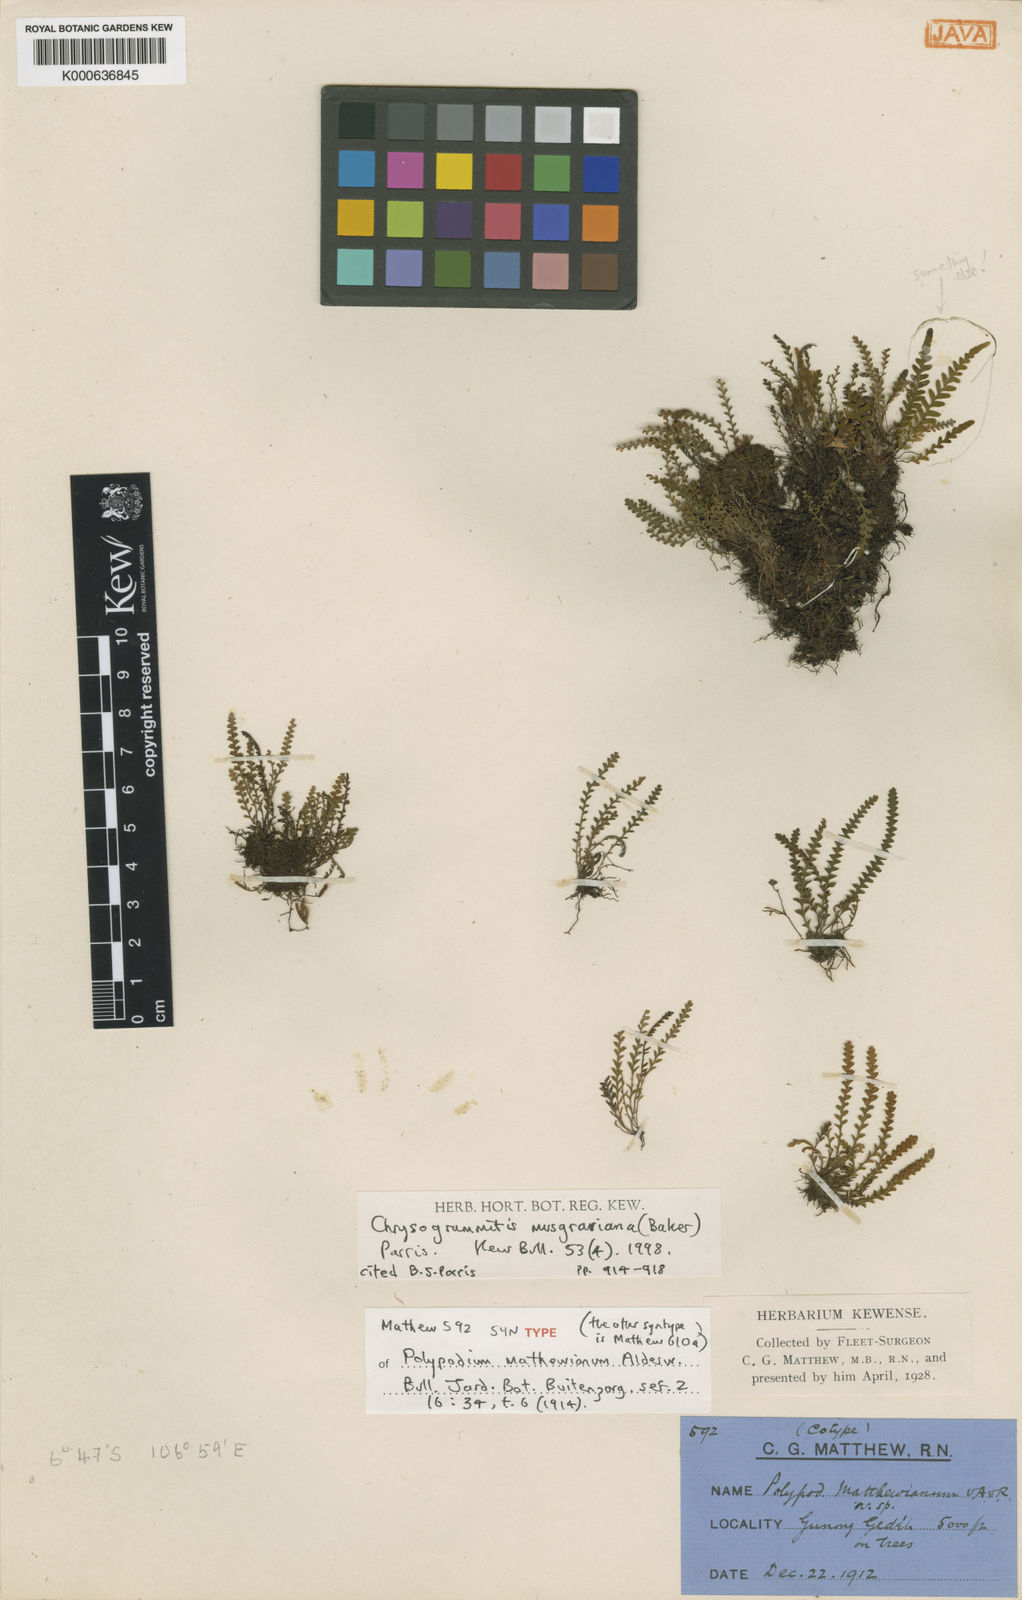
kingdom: Plantae
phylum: Tracheophyta
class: Polypodiopsida
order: Polypodiales
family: Polypodiaceae
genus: Chrysogrammitis
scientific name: Chrysogrammitis musgraviana
